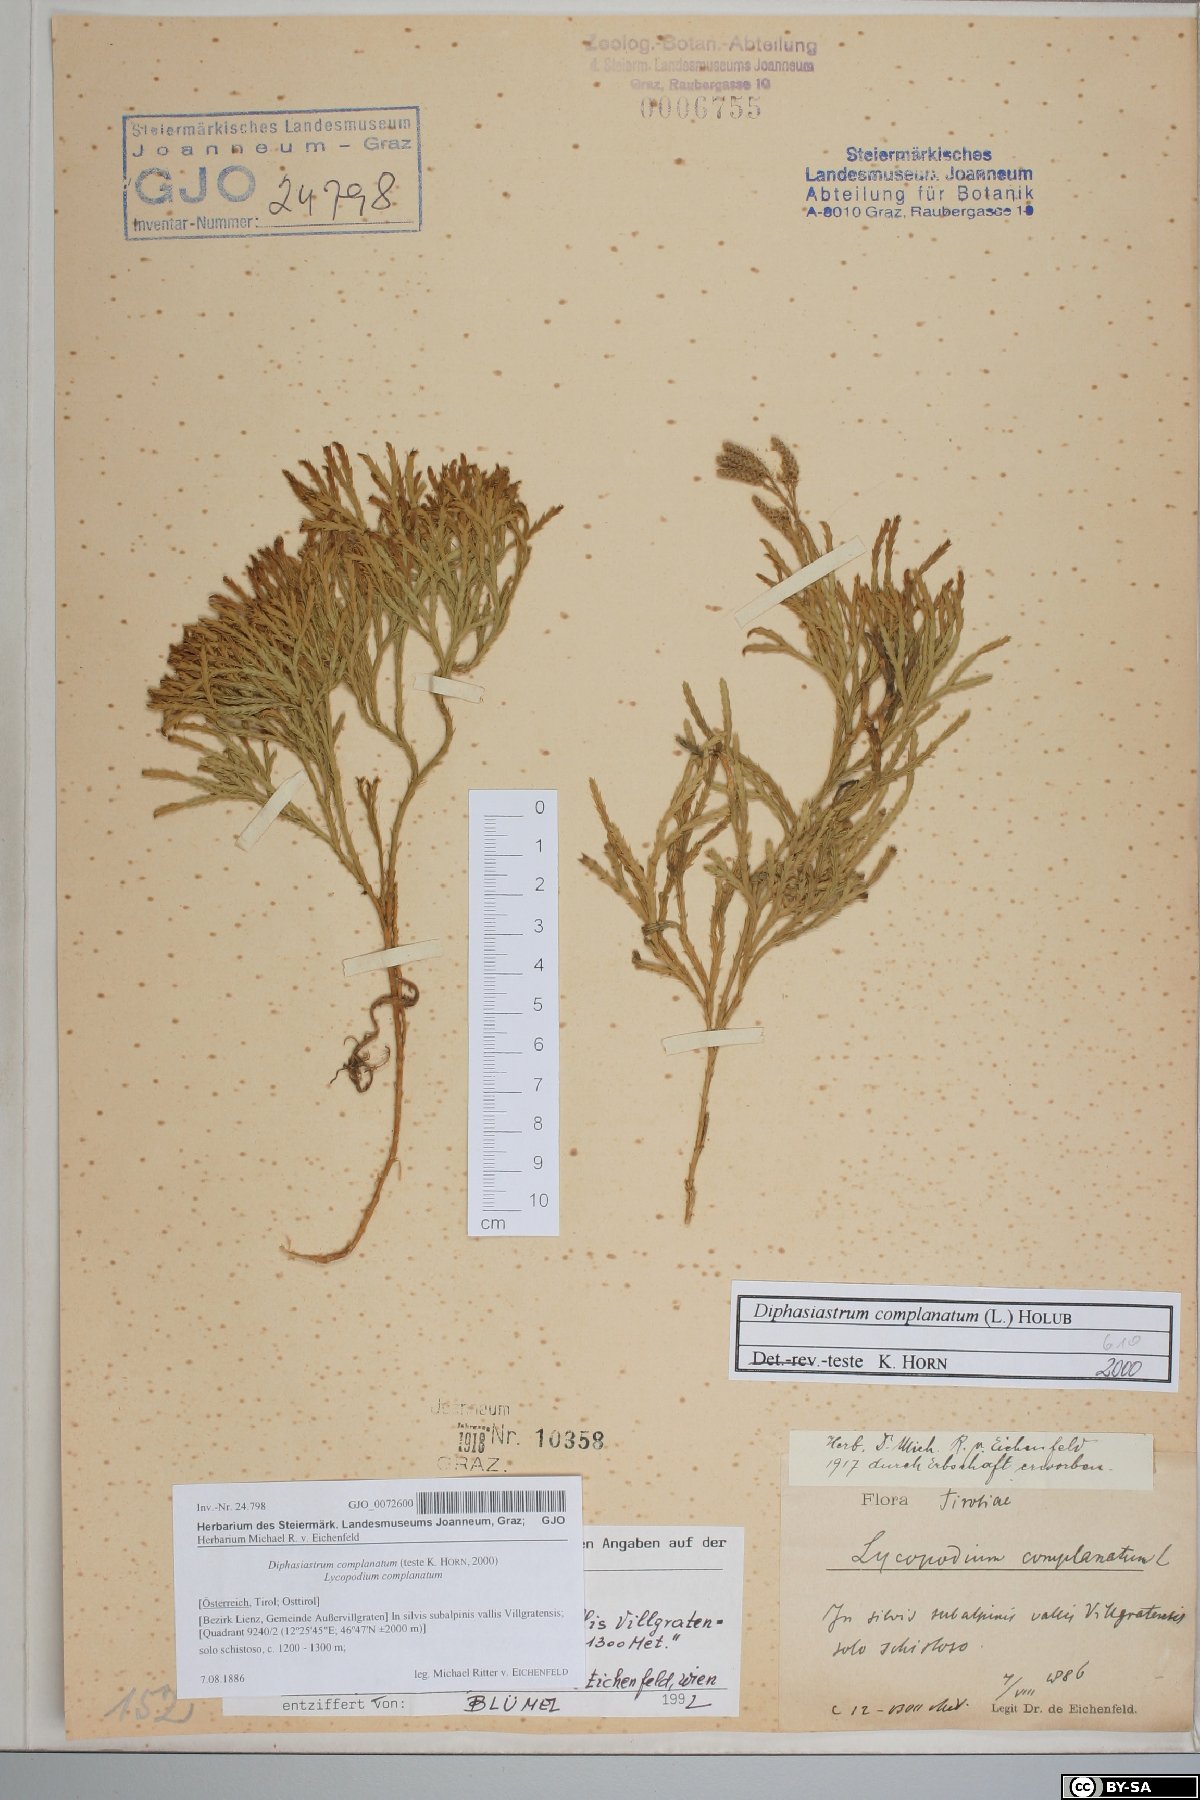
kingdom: Plantae
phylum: Tracheophyta
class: Lycopodiopsida
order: Lycopodiales
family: Lycopodiaceae
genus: Diphasiastrum
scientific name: Diphasiastrum complanatum
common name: Northern running-pine
